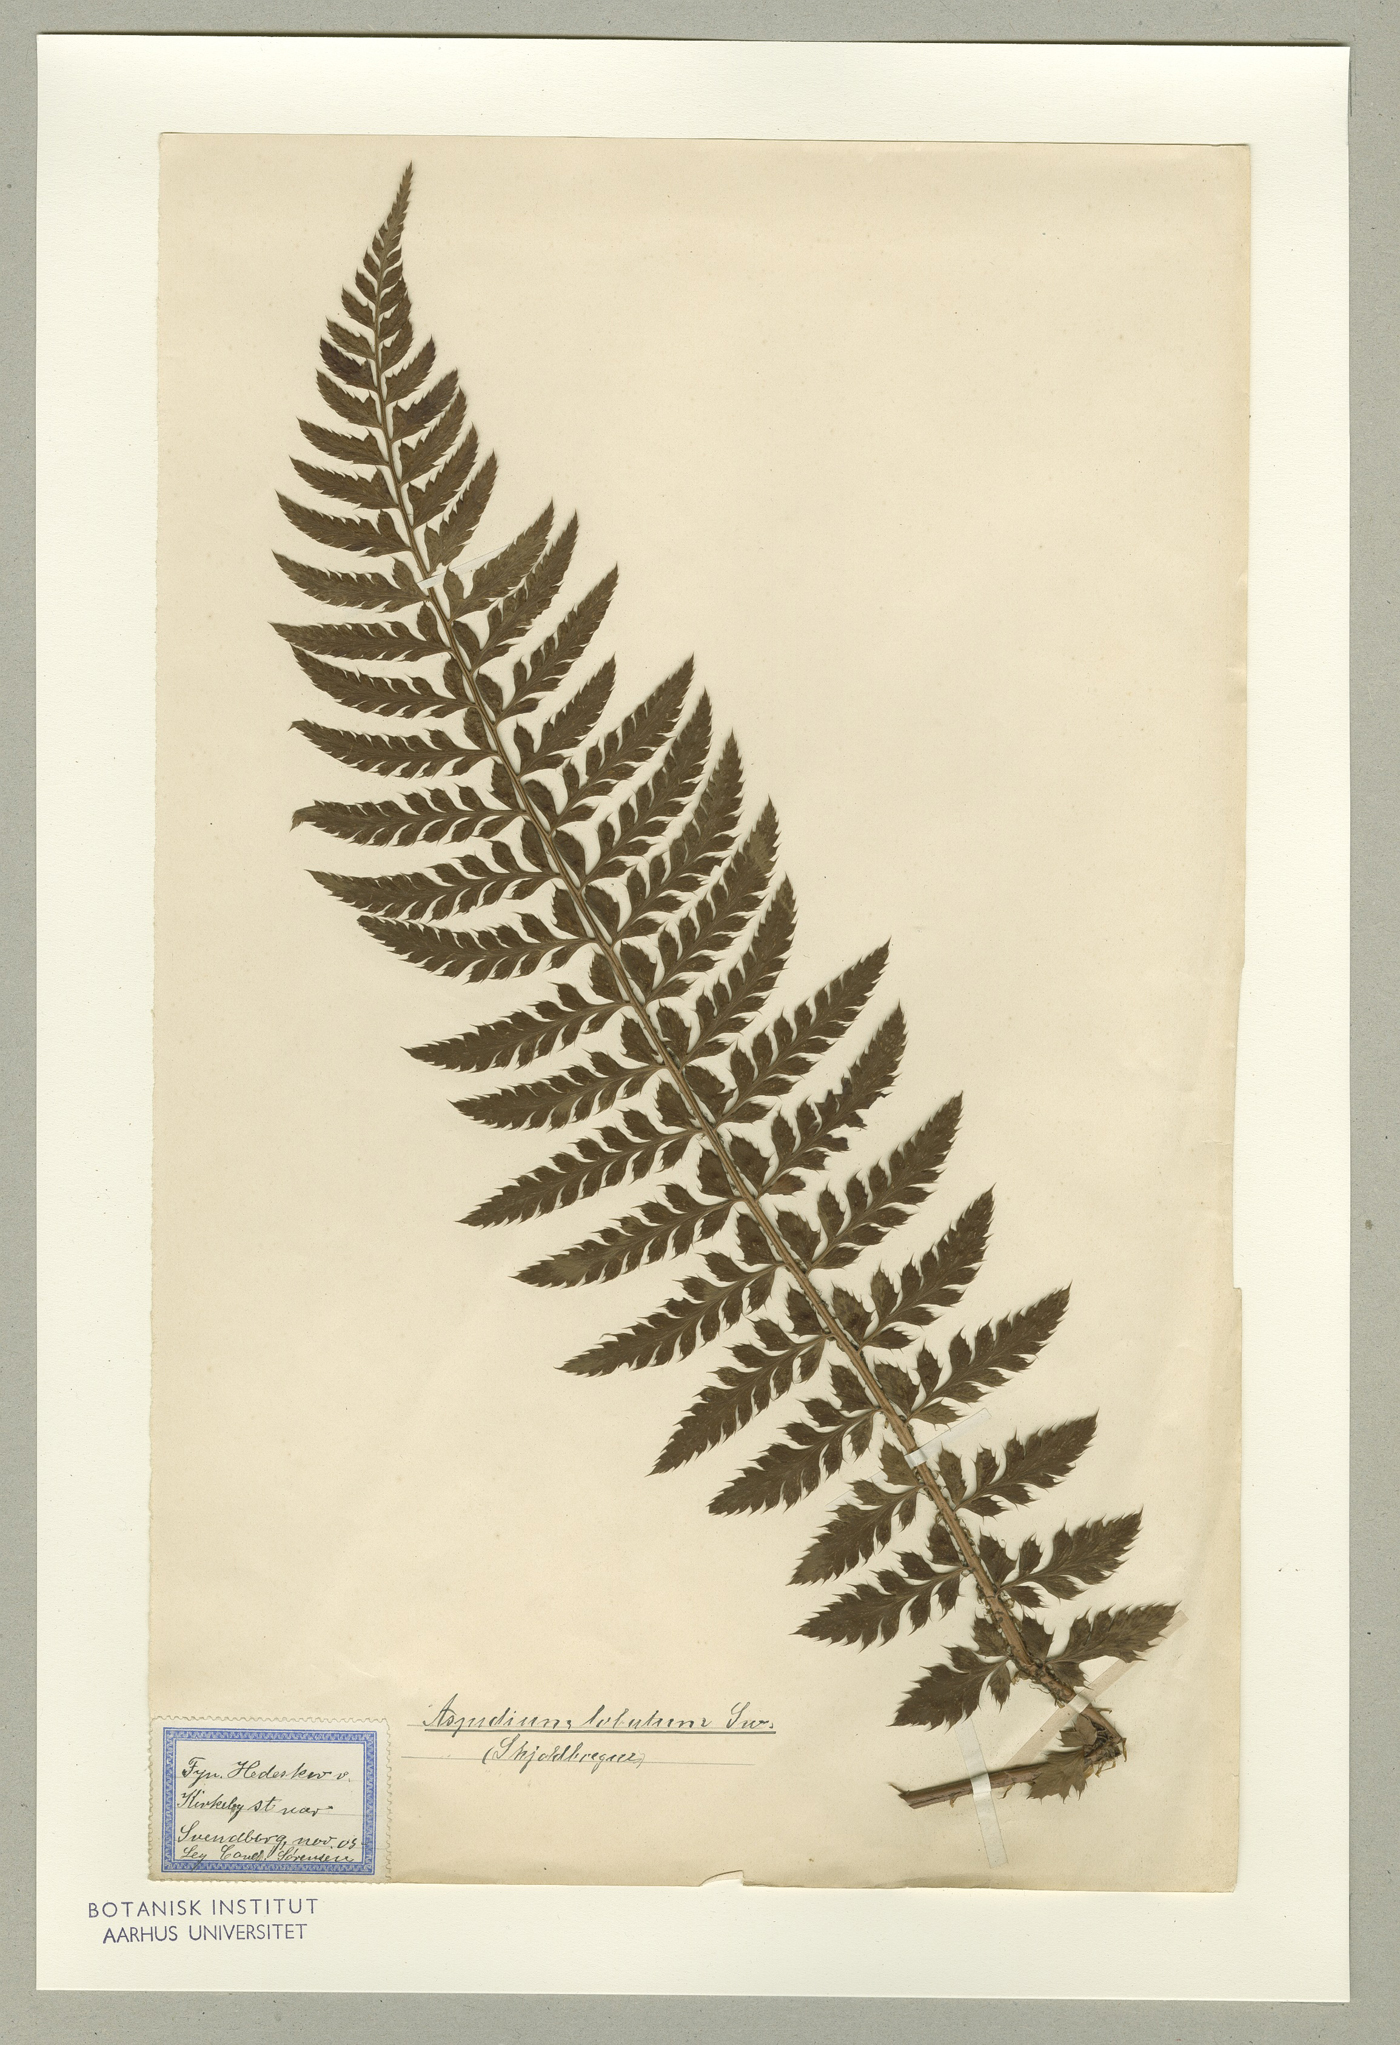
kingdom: Plantae
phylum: Tracheophyta
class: Polypodiopsida
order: Polypodiales
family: Dryopteridaceae
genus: Polystichum
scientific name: Polystichum aculeatum
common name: Hard shield-fern
